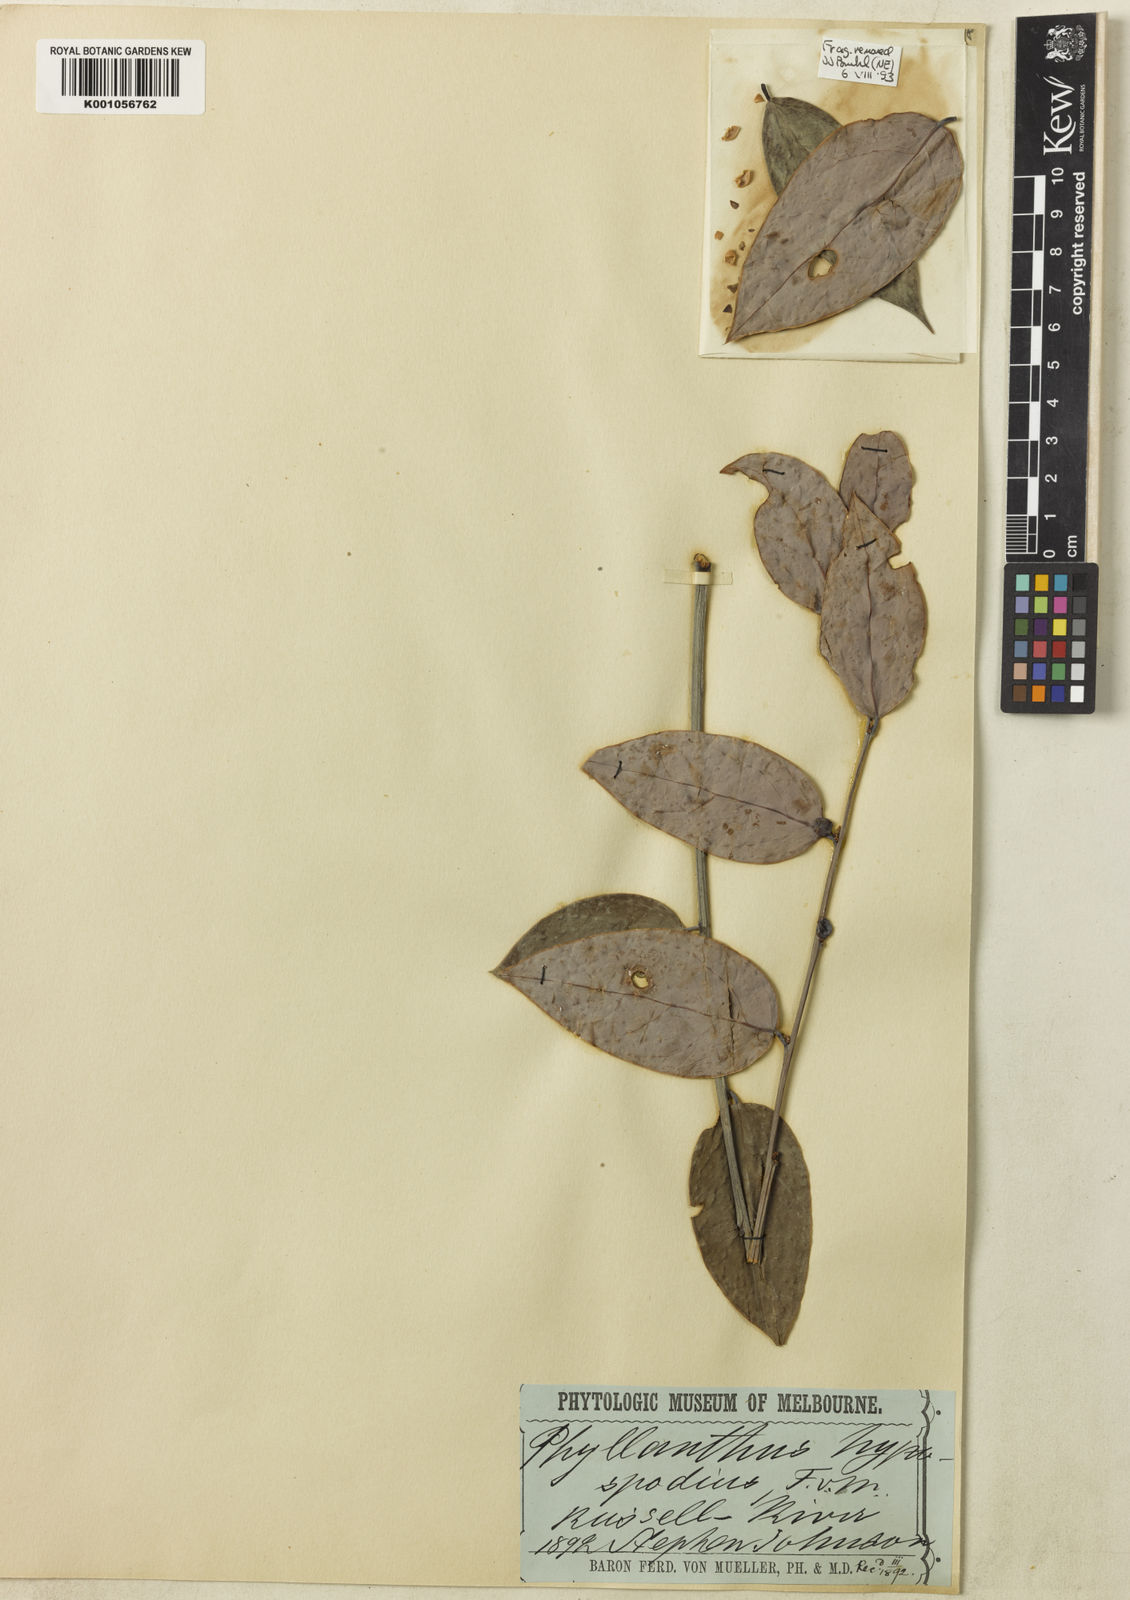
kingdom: Plantae
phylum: Tracheophyta
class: Magnoliopsida
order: Malpighiales
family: Phyllanthaceae
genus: Phyllanthus
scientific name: Phyllanthus hypospodius
